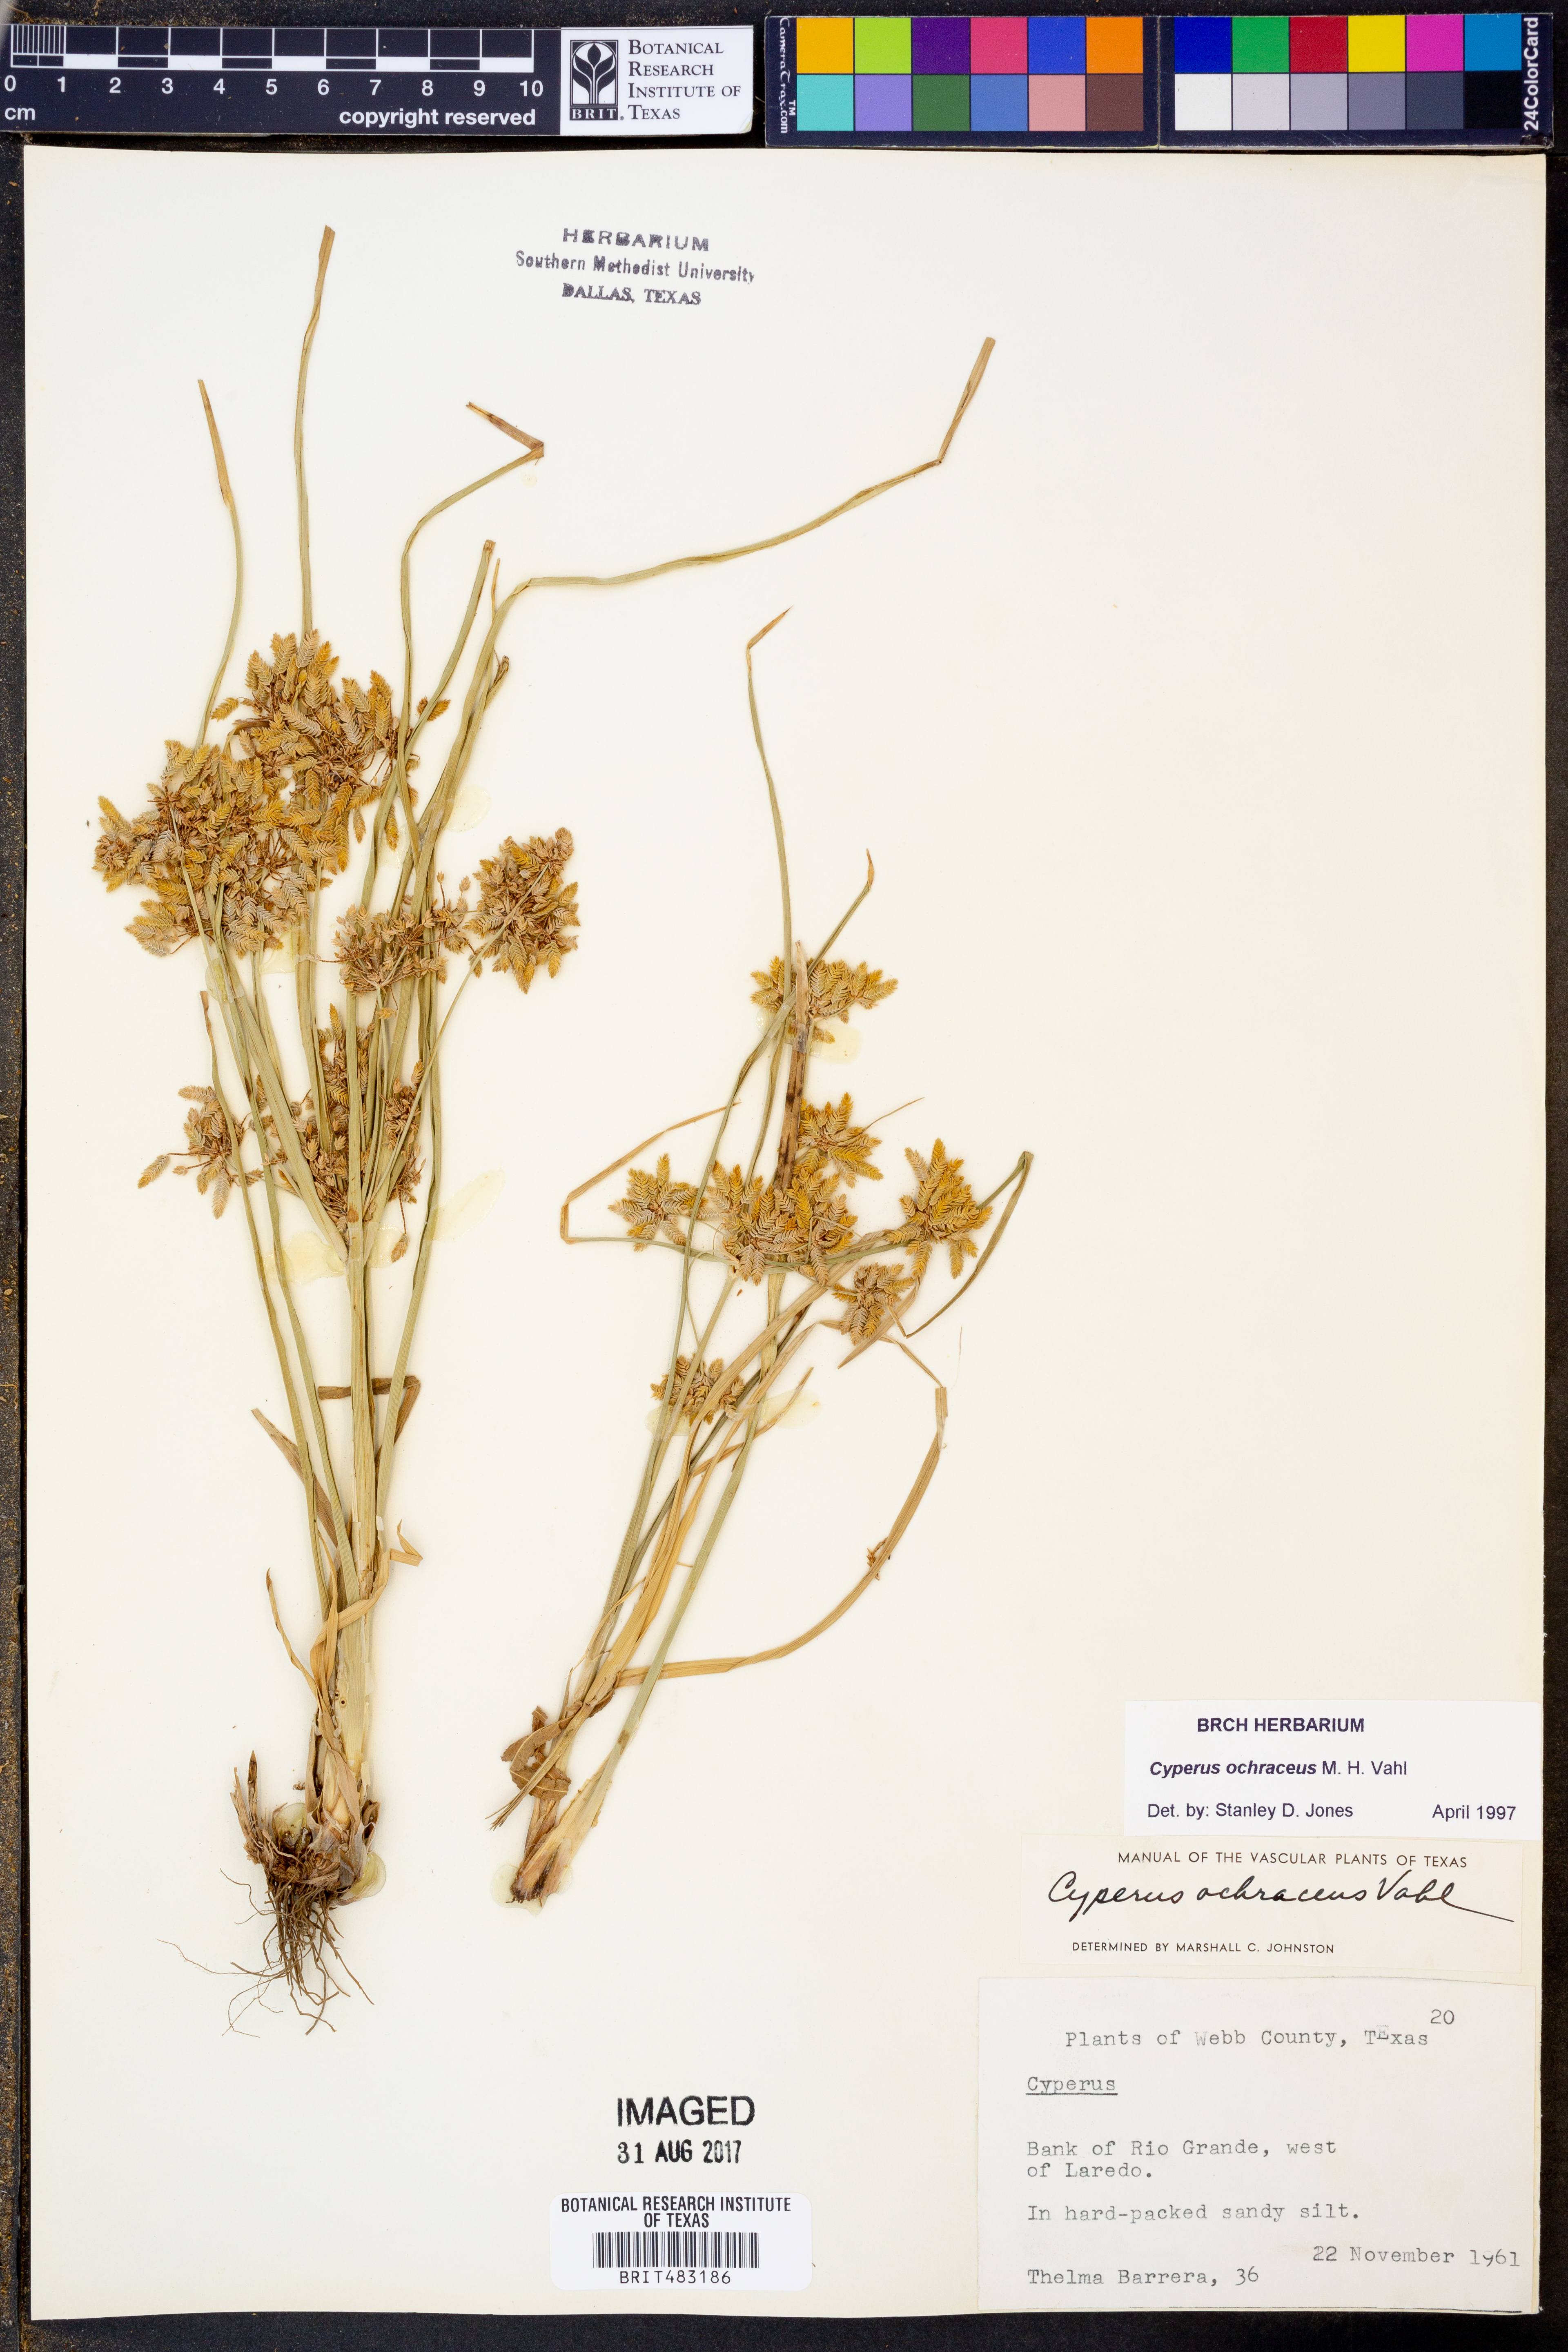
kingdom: Plantae
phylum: Tracheophyta
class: Liliopsida
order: Poales
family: Cyperaceae
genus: Cyperus
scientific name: Cyperus ochraceus
